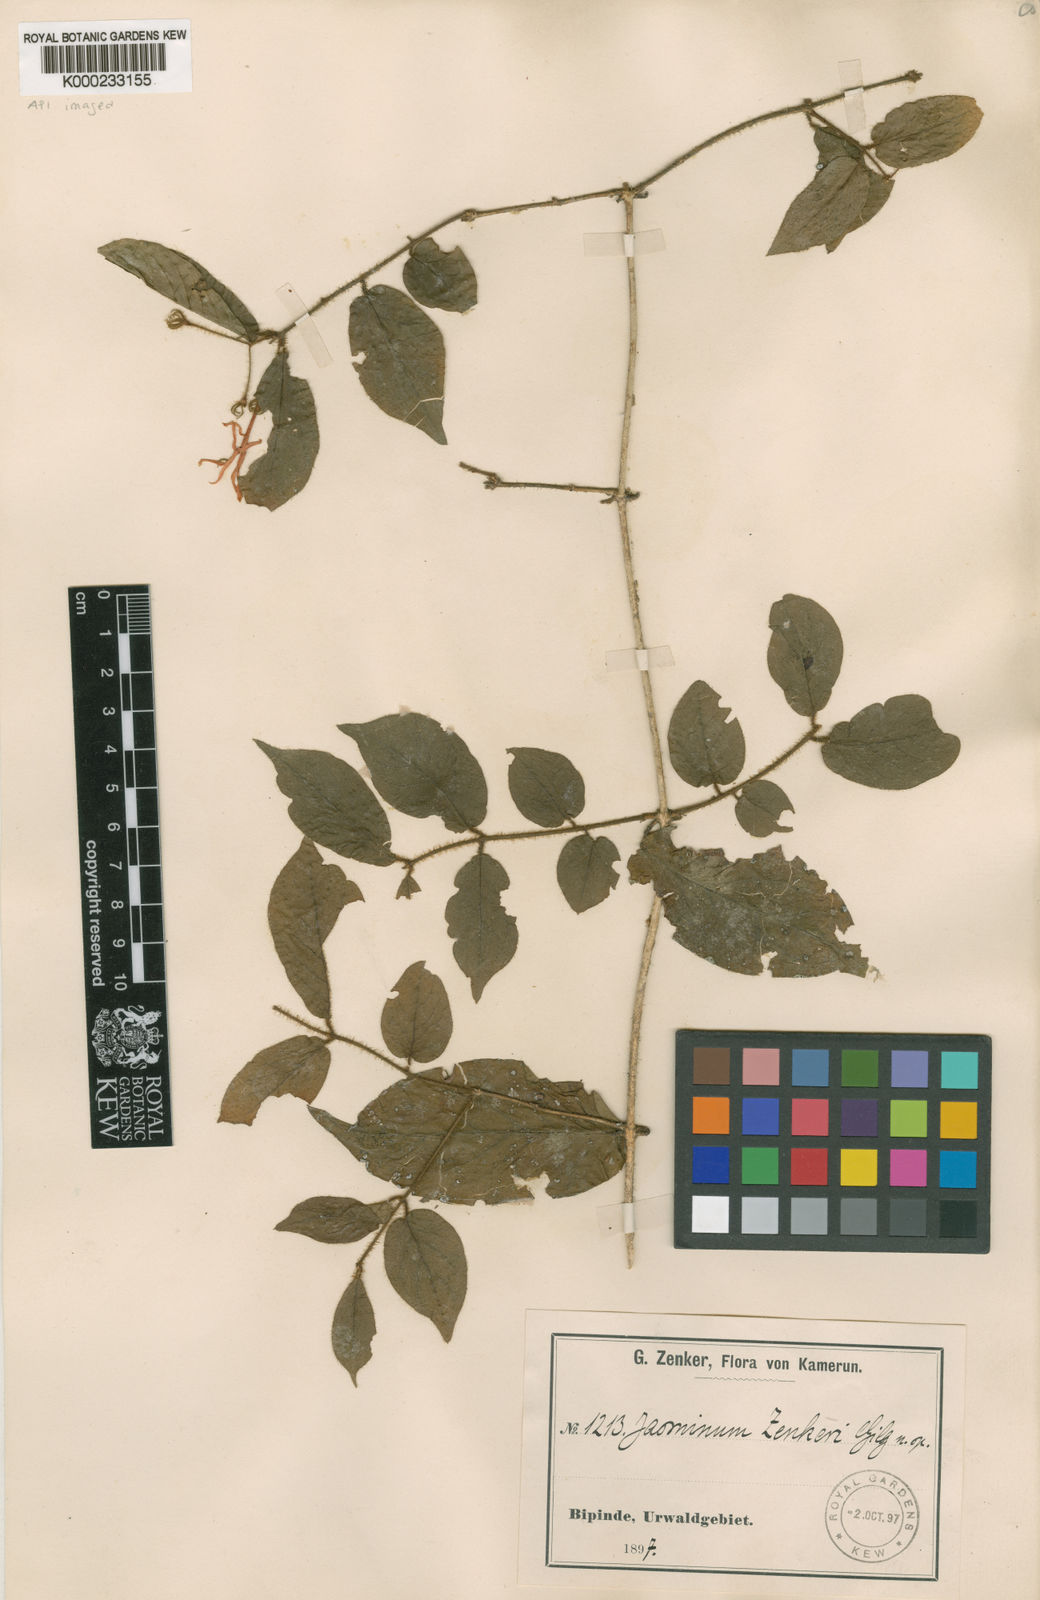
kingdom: Plantae
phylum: Tracheophyta
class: Magnoliopsida
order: Lamiales
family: Oleaceae
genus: Jasminum
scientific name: Jasminum preussii
